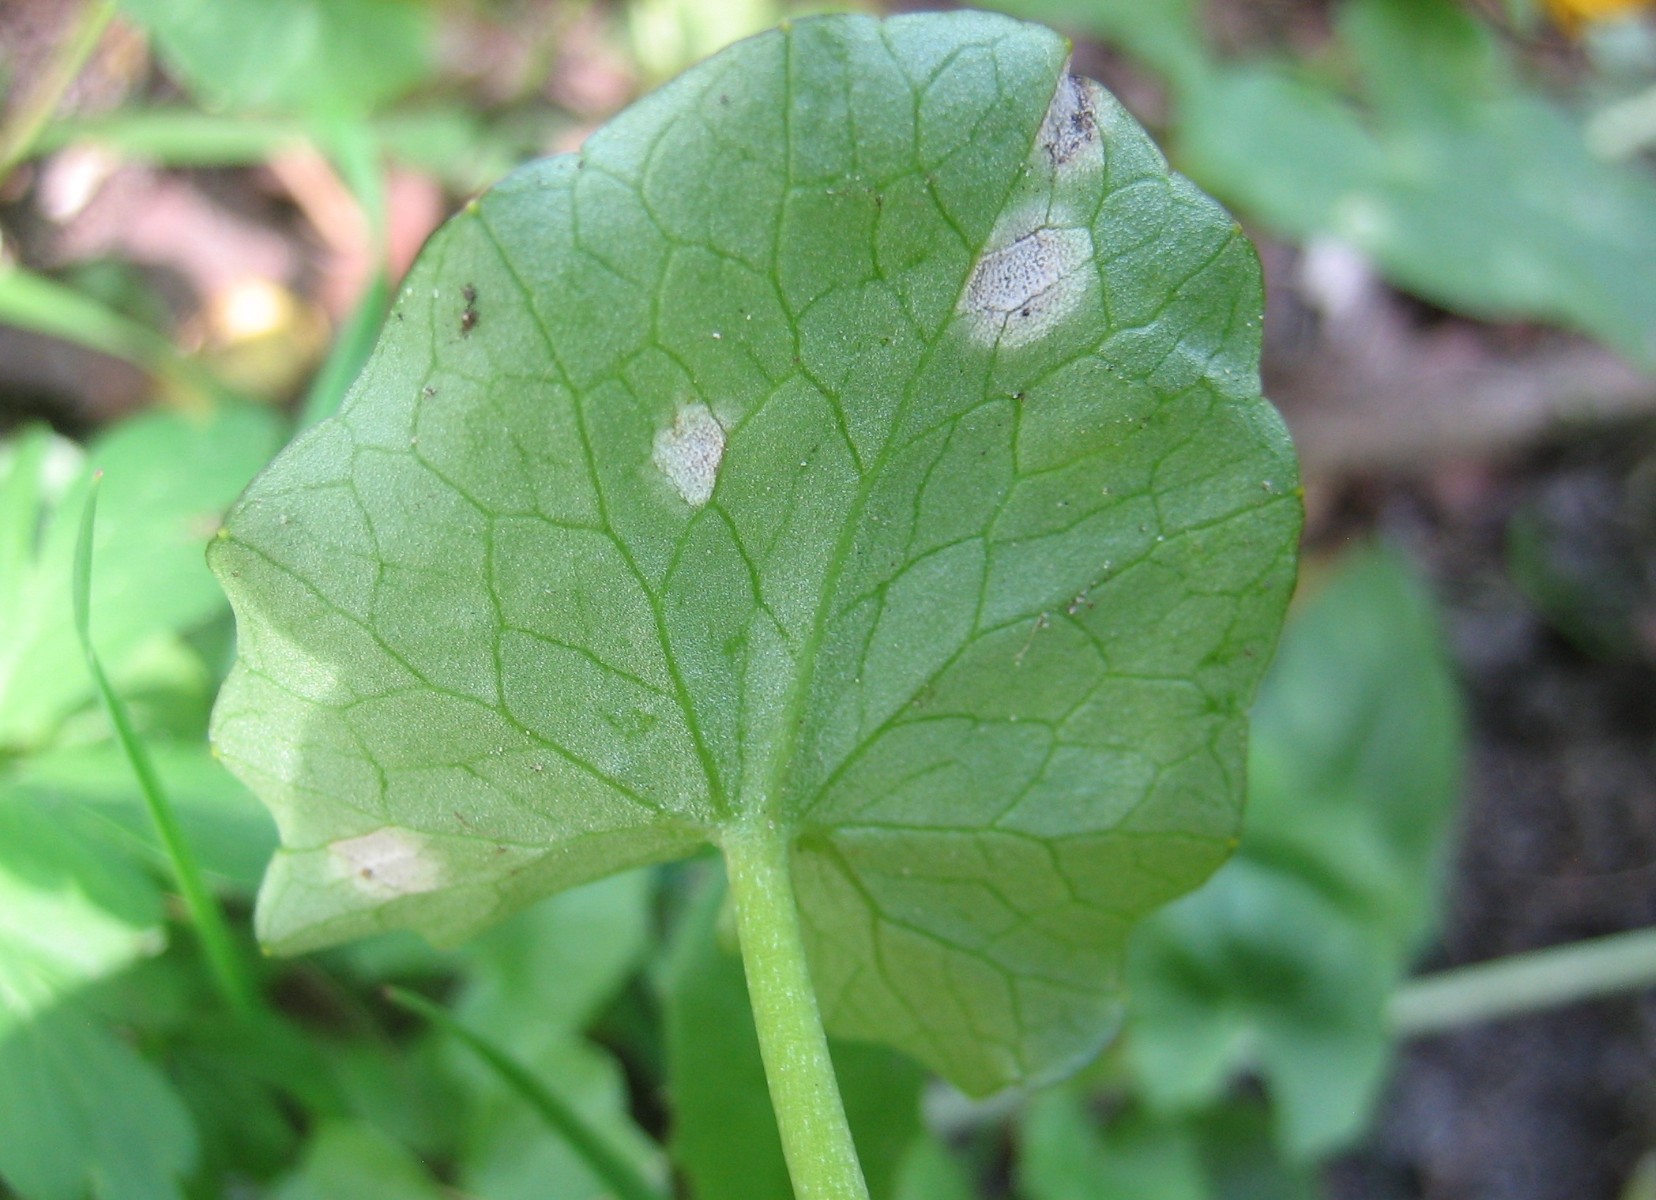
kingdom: Fungi
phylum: Basidiomycota
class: Exobasidiomycetes
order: Entylomatales
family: Entylomataceae
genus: Entyloma
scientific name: Entyloma ficariae
